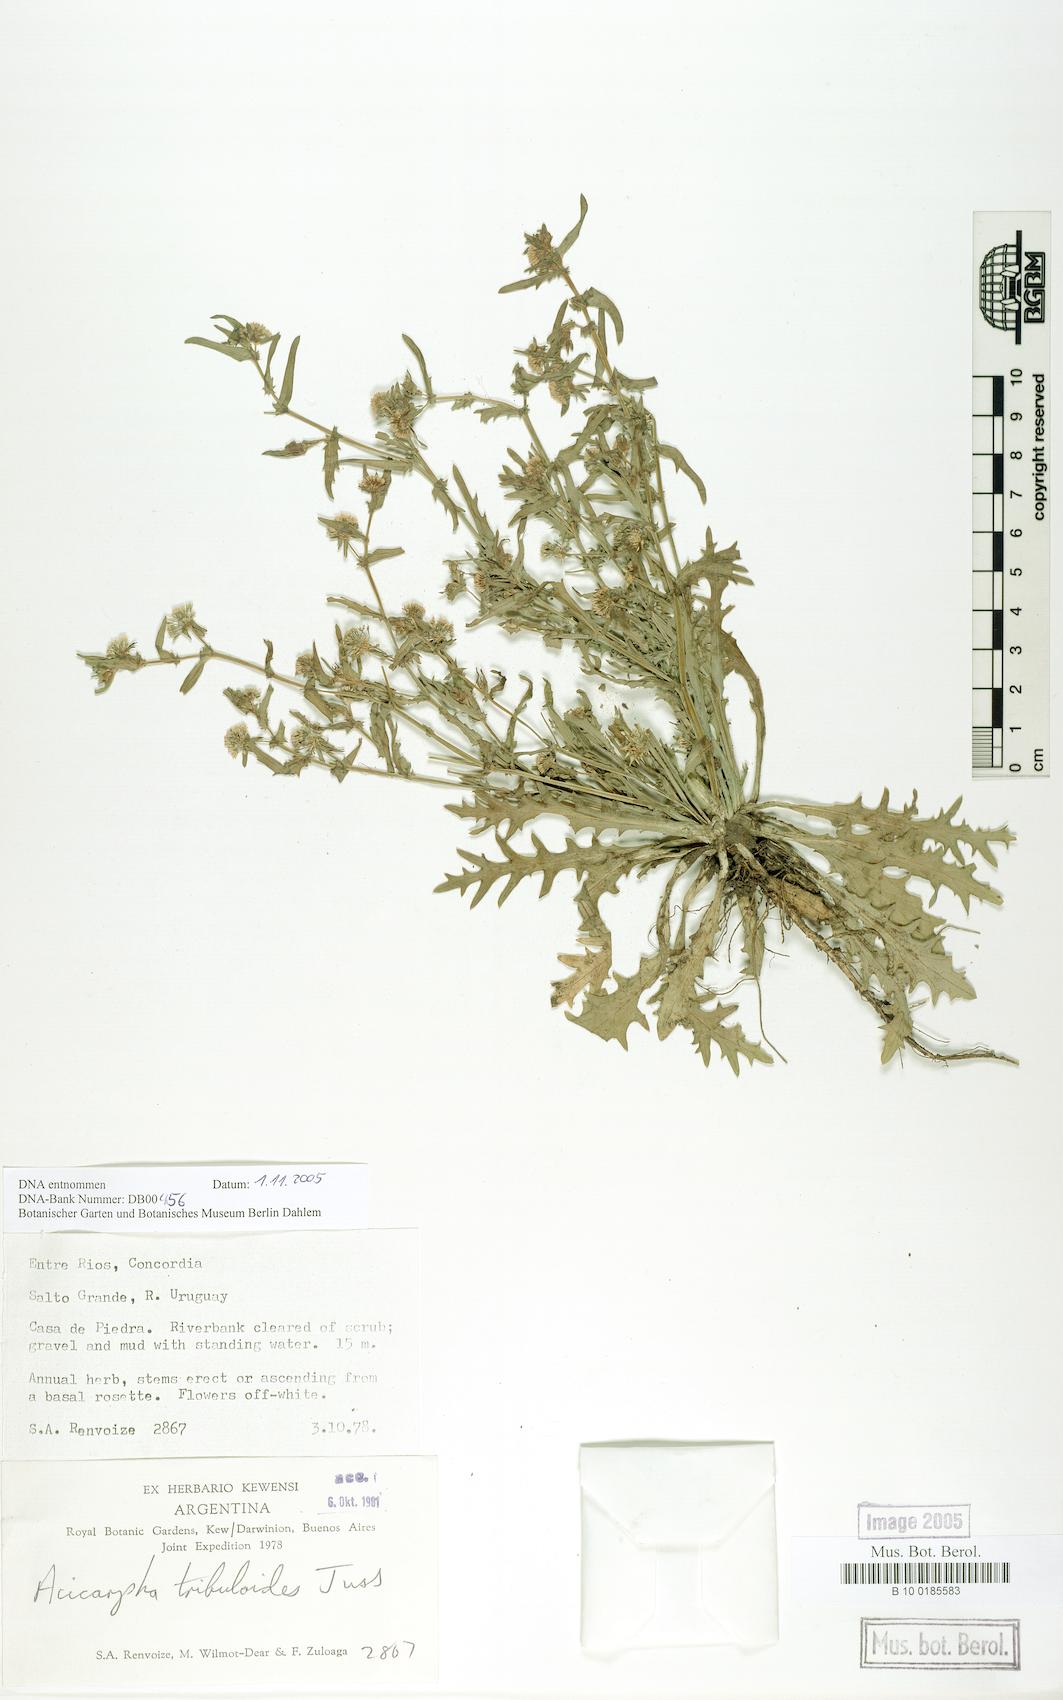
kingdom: Plantae
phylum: Tracheophyta
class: Magnoliopsida
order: Asterales
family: Calyceraceae
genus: Acicarpha
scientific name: Acicarpha tribuloides
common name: Madam gorgon
